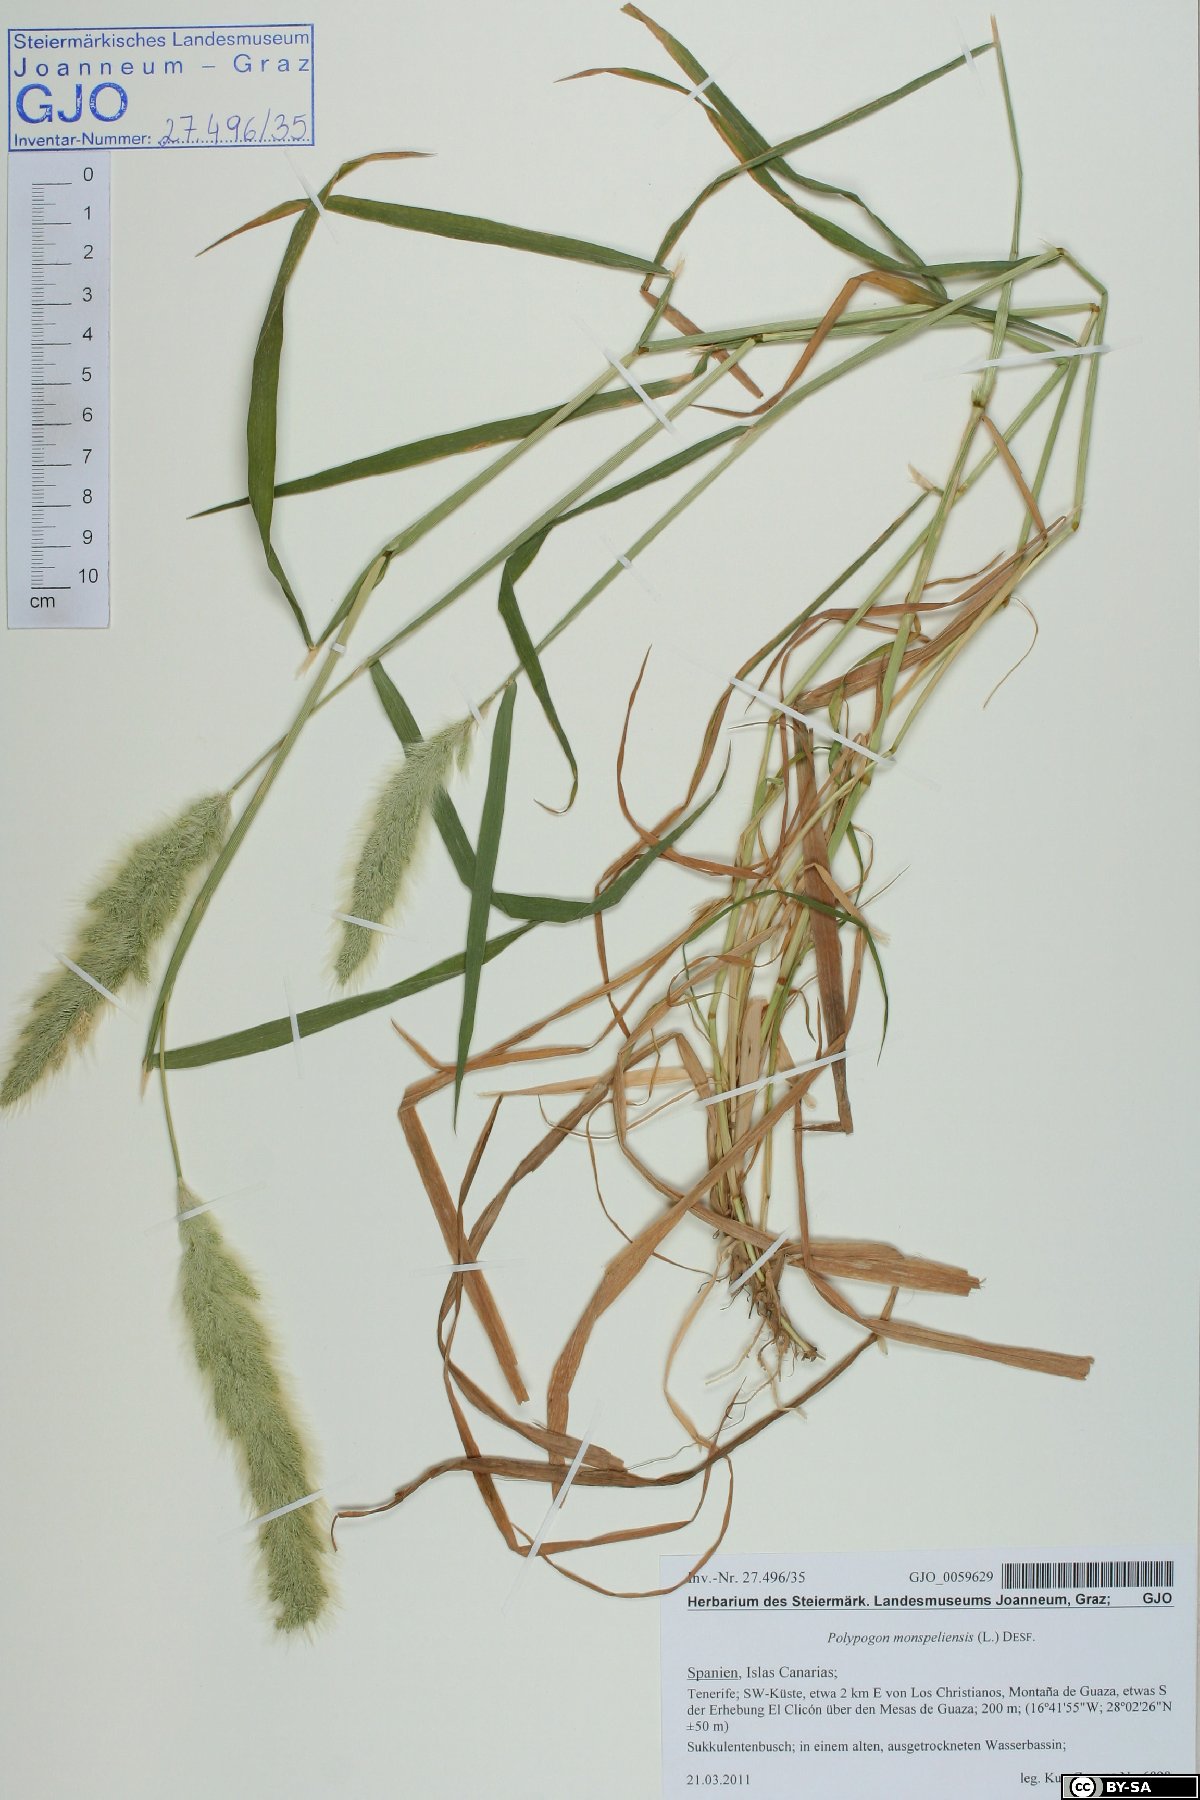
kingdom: Plantae
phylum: Tracheophyta
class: Liliopsida
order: Poales
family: Poaceae
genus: Polypogon
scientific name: Polypogon monspeliensis
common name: Annual rabbitsfoot grass
